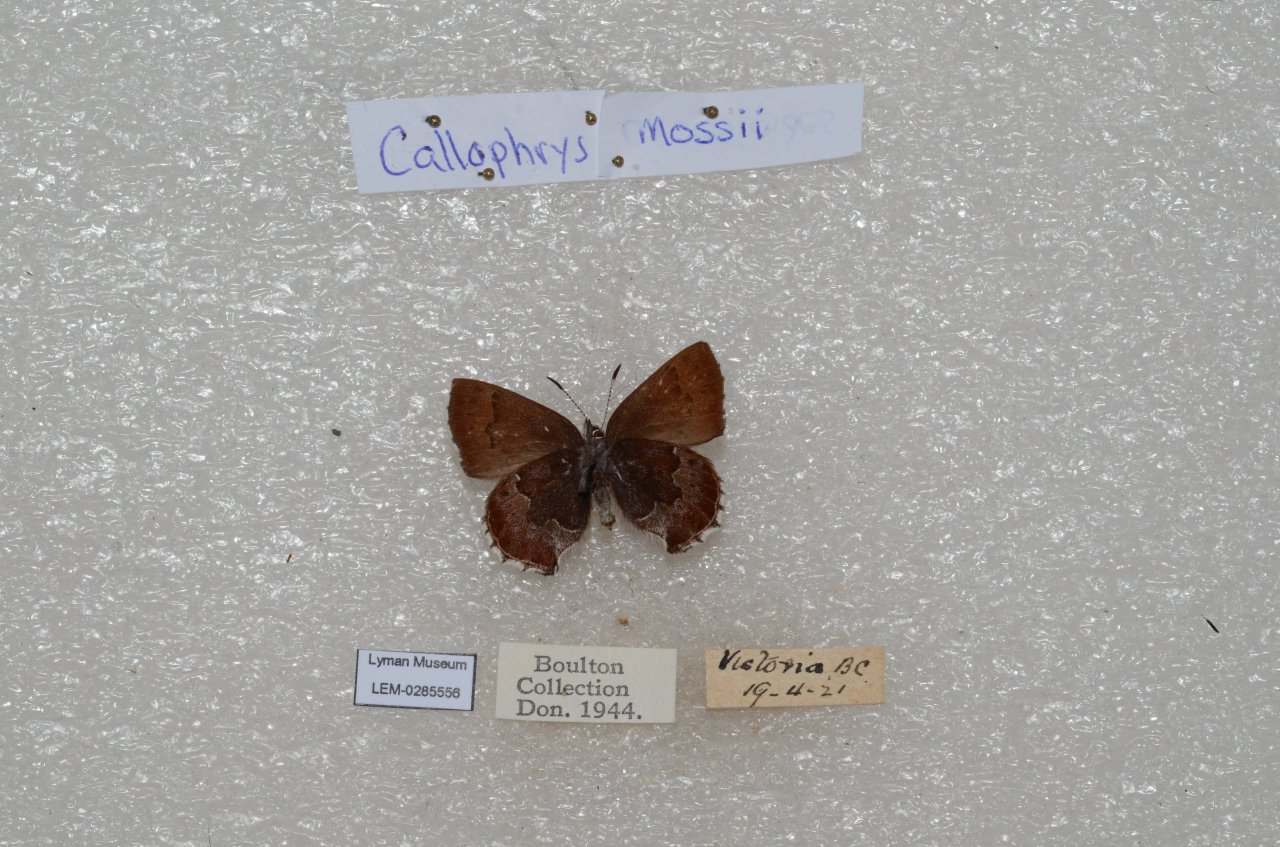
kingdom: Animalia
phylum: Arthropoda
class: Insecta
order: Lepidoptera
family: Lycaenidae
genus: Callophrys
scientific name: Callophrys mossii
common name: Moss' Elfin
